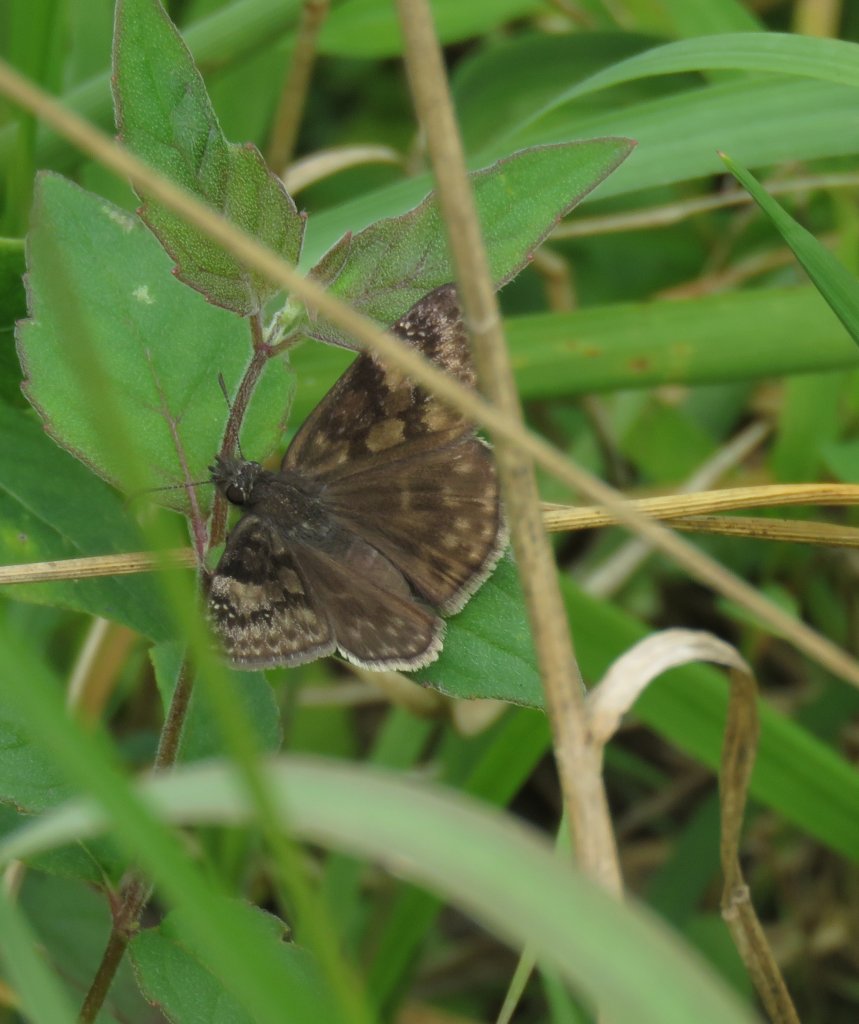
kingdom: Animalia
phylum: Arthropoda
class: Insecta
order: Lepidoptera
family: Hesperiidae
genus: Gesta
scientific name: Gesta
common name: Wild Indigo Duskywing
